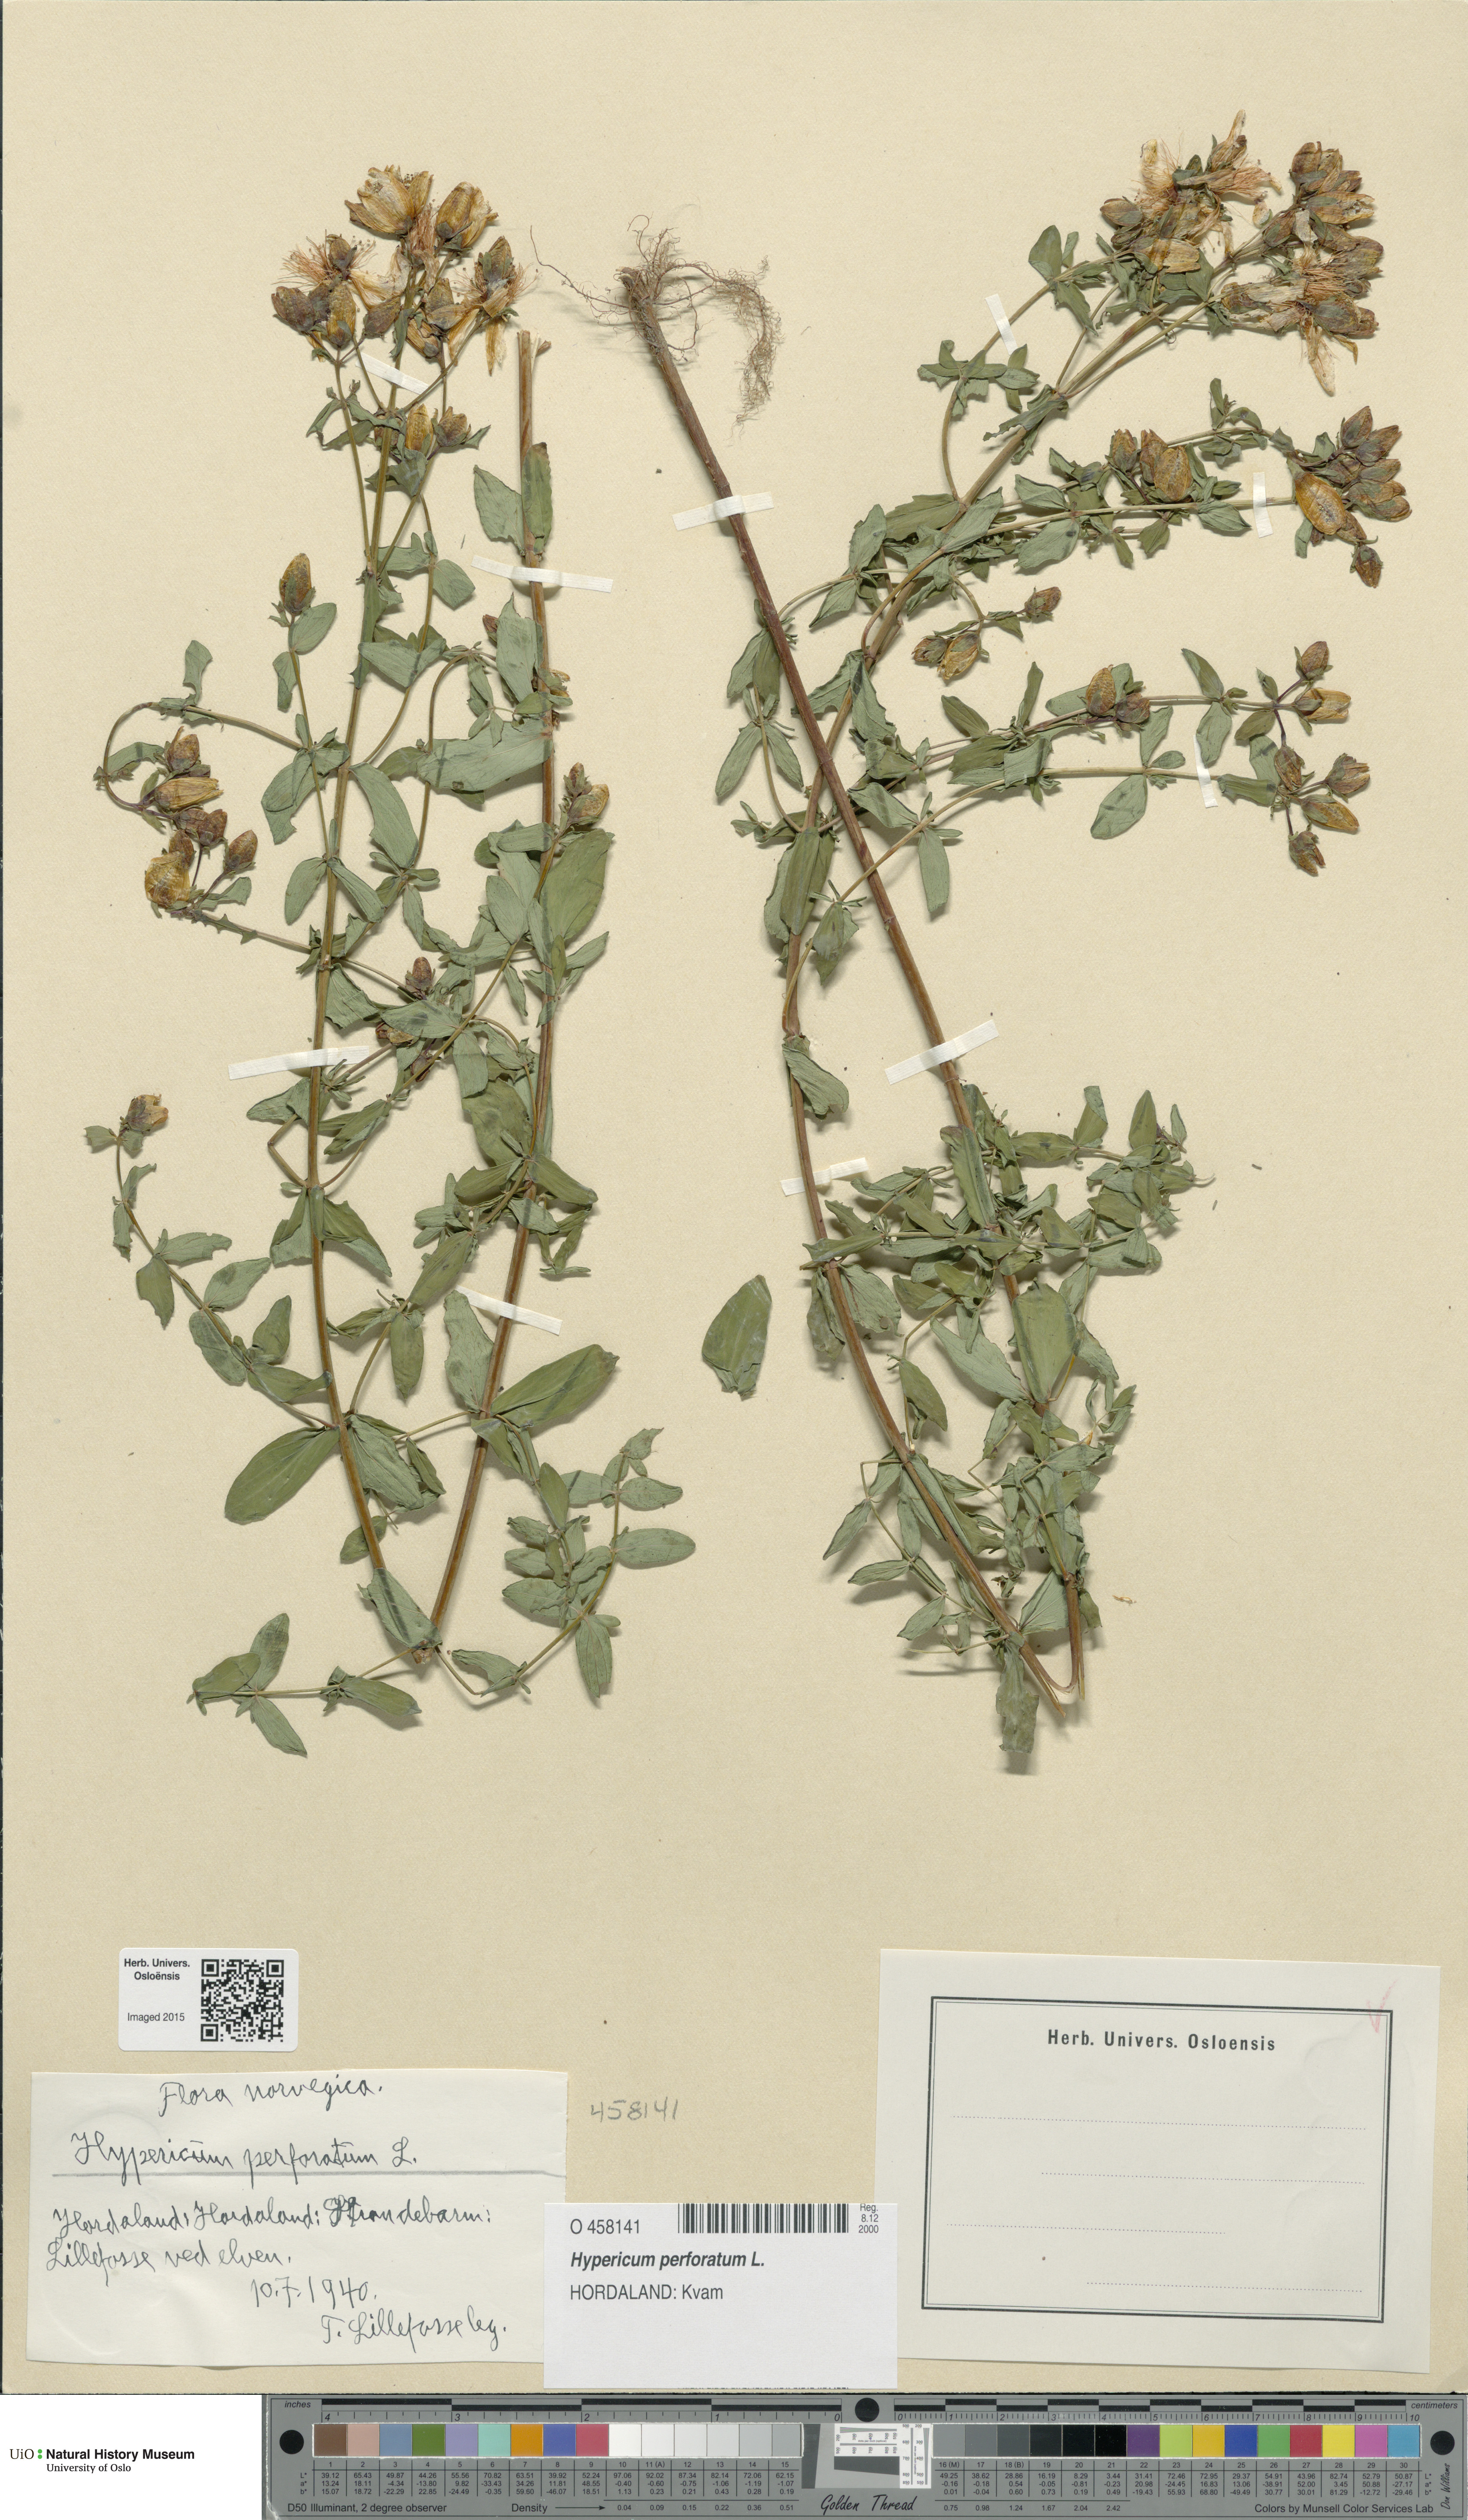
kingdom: Plantae
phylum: Tracheophyta
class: Magnoliopsida
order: Malpighiales
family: Hypericaceae
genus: Hypericum
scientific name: Hypericum perforatum
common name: Common st. johnswort
